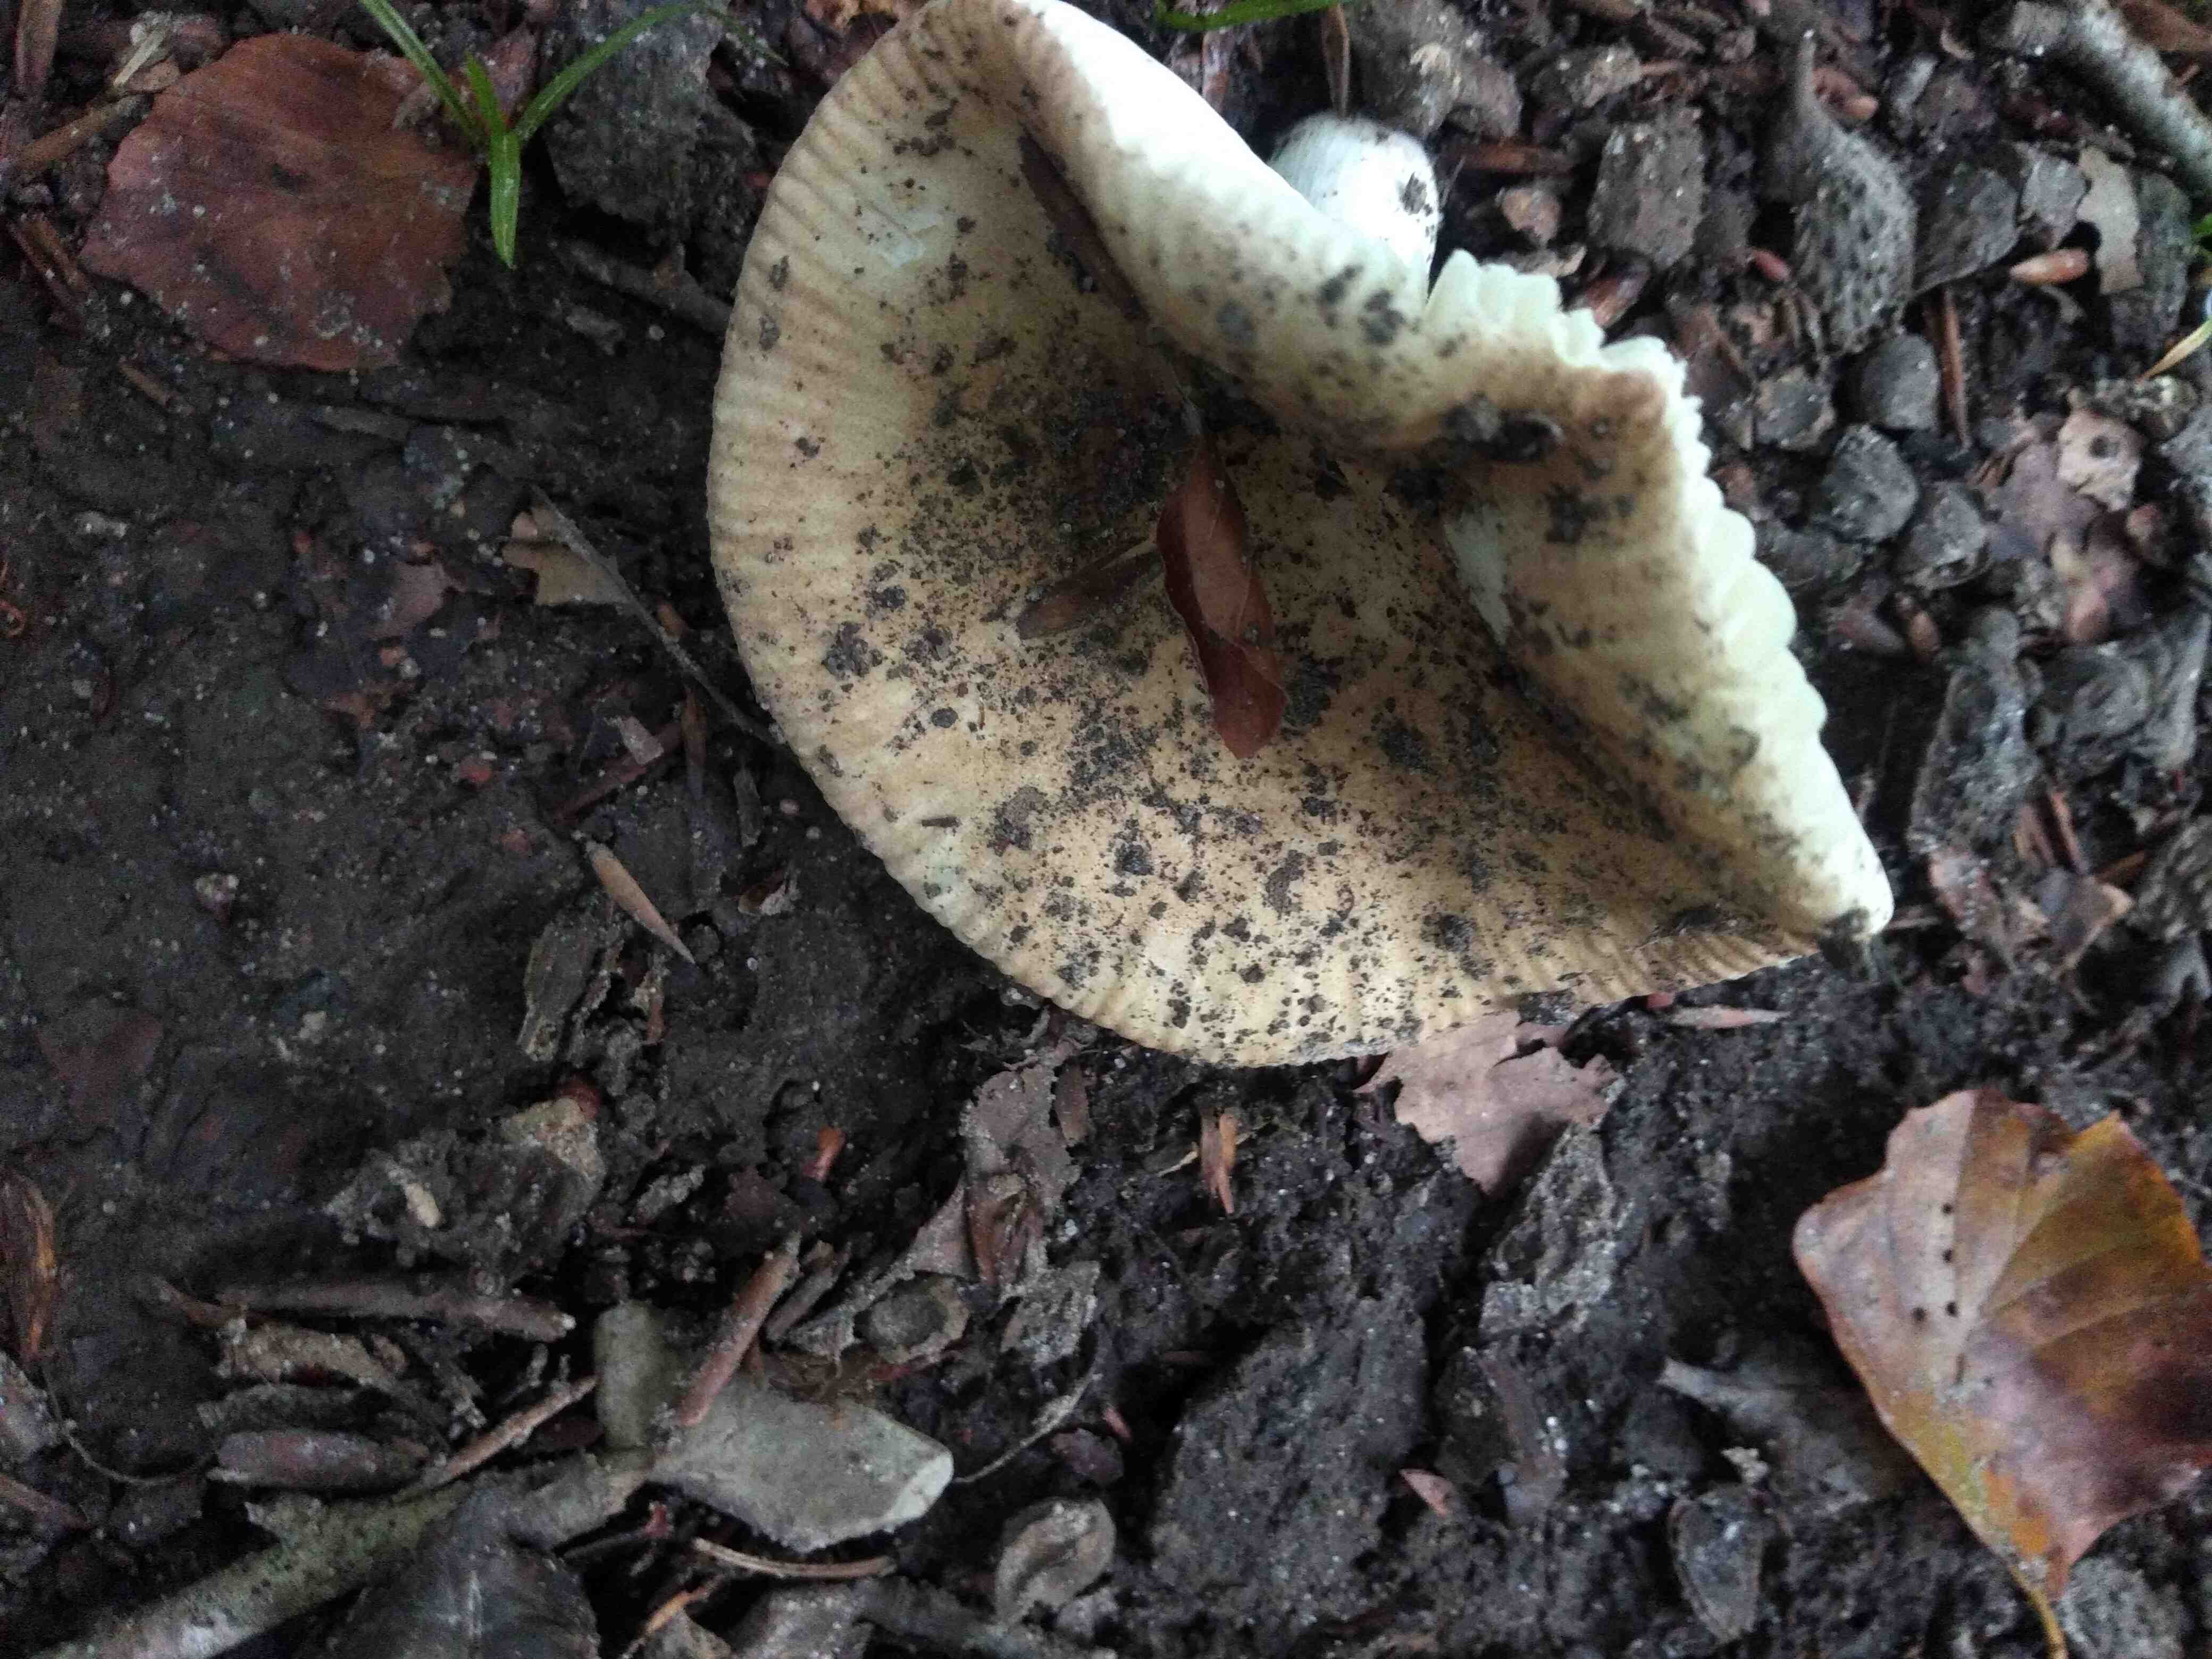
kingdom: Fungi
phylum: Basidiomycota
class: Agaricomycetes
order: Russulales
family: Russulaceae
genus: Russula
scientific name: Russula
